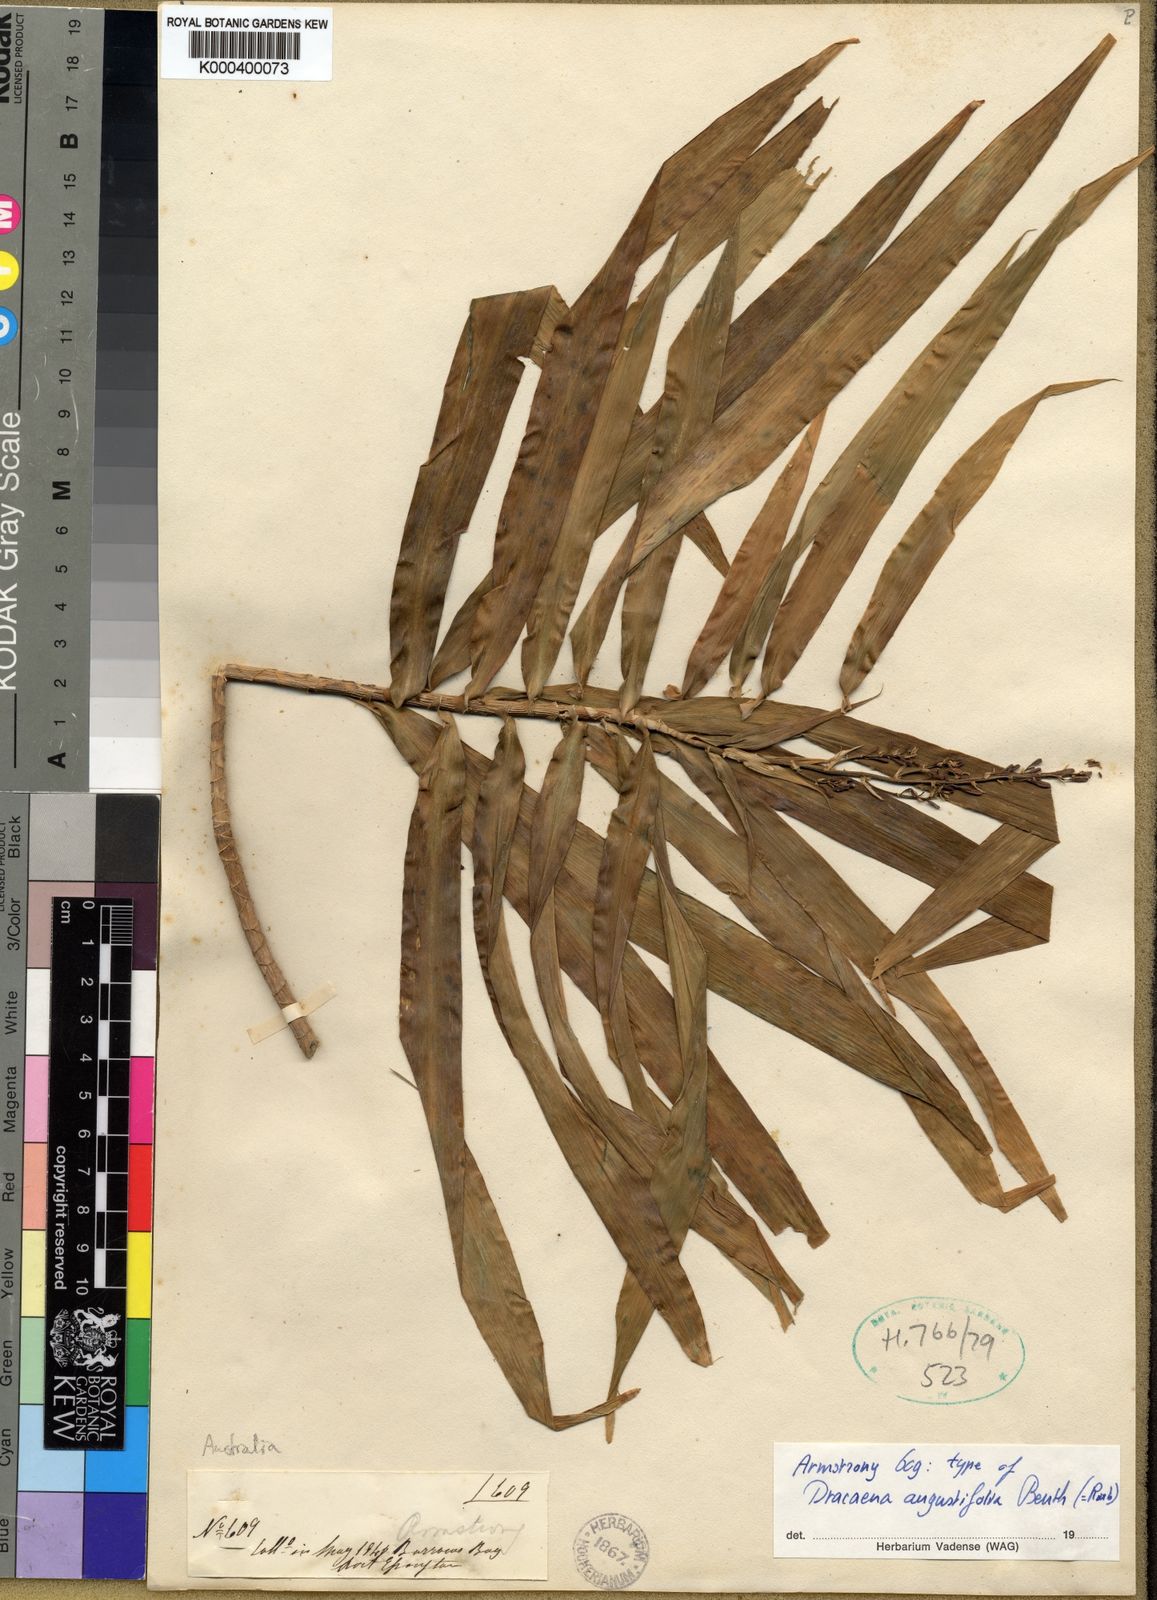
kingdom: Plantae
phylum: Tracheophyta
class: Liliopsida
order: Asparagales
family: Asparagaceae
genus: Dracaena
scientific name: Dracaena angustifolia
